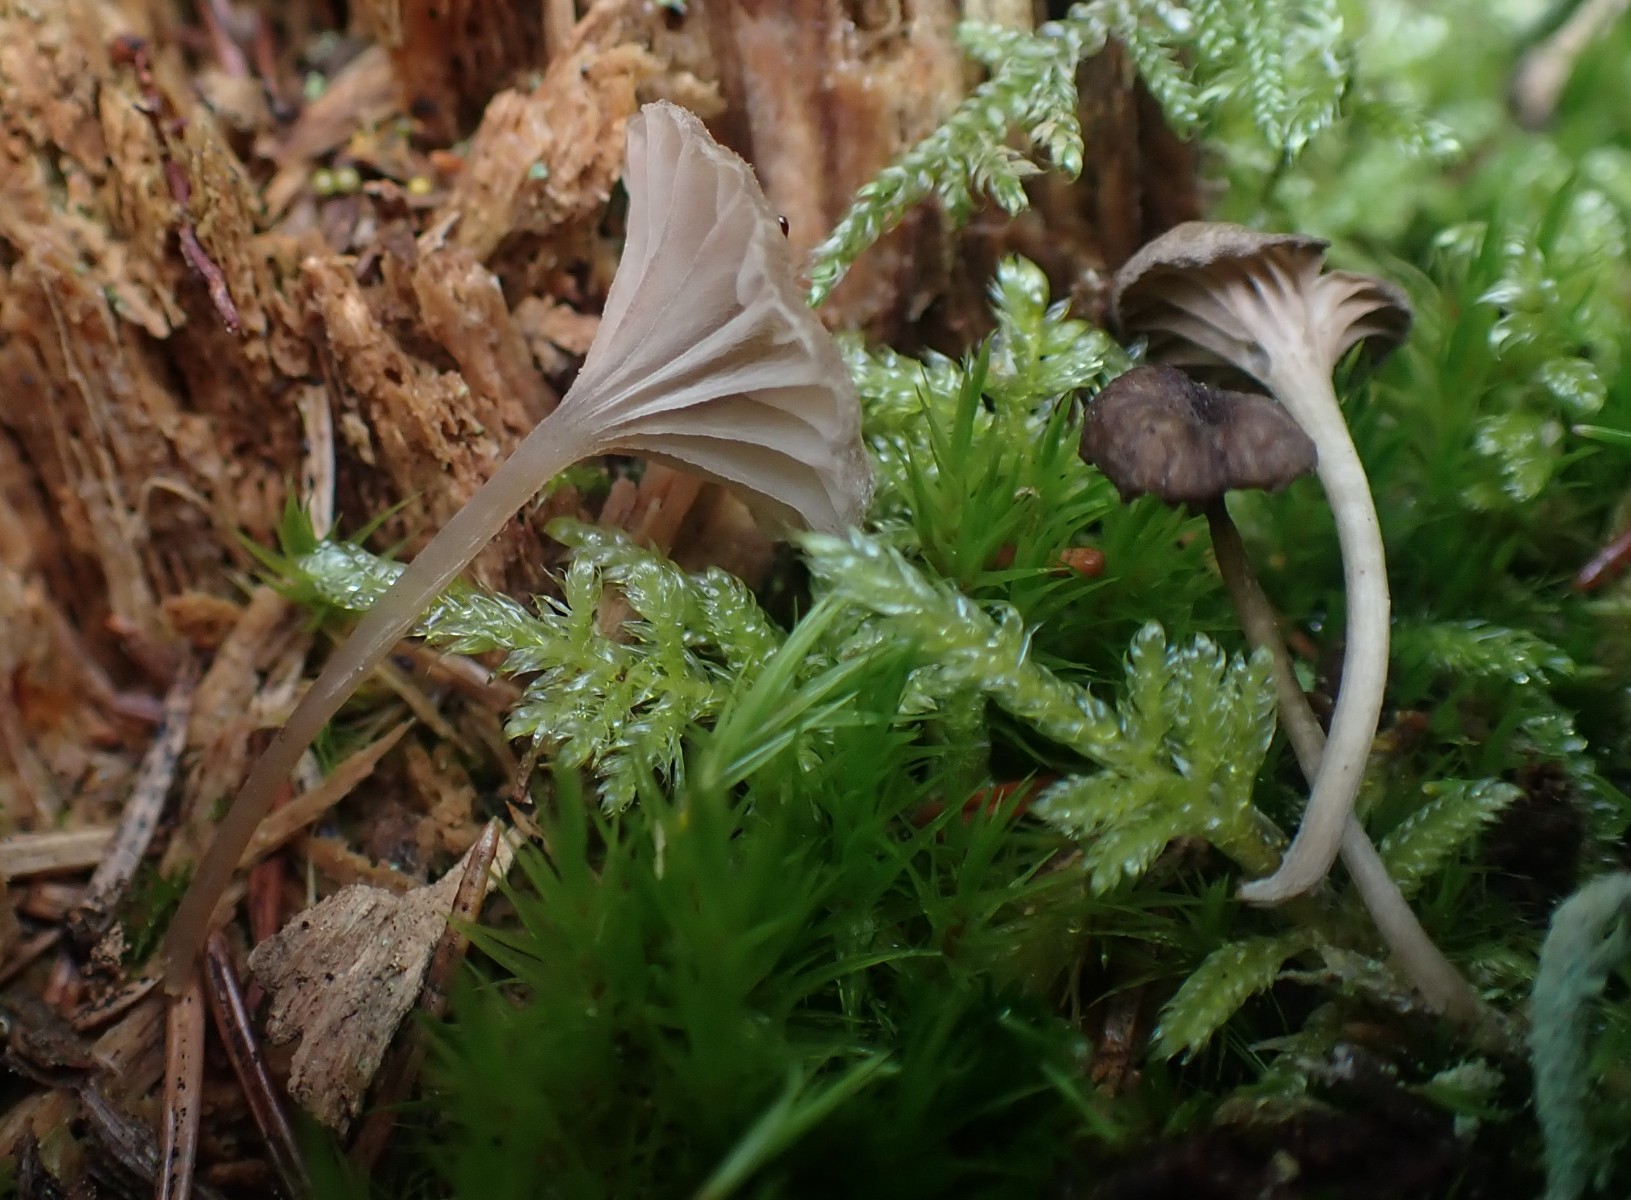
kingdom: Fungi
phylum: Basidiomycota
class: Agaricomycetes
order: Agaricales
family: Entolomataceae
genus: Entoloma
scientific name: Entoloma rhodocylix
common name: fjernbladet rødblad
